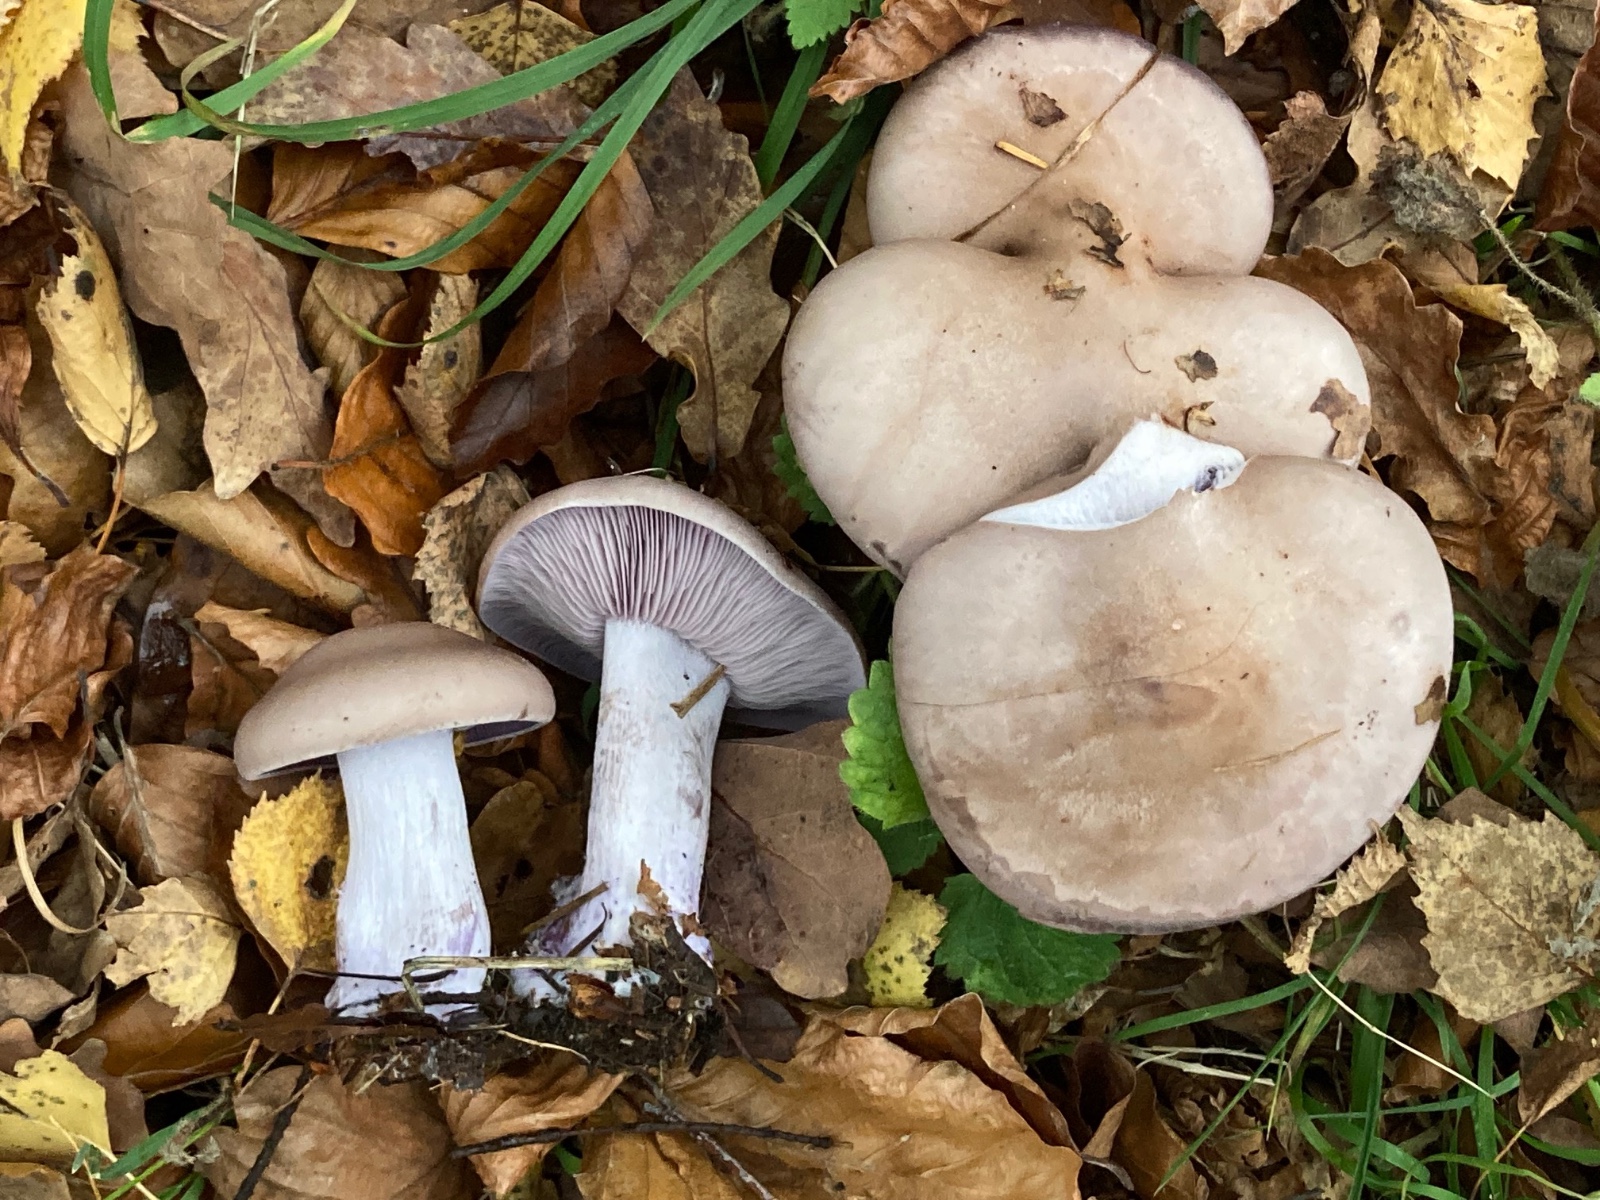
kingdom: Fungi
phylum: Basidiomycota
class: Agaricomycetes
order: Agaricales
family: Tricholomataceae
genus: Lepista
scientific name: Lepista nuda
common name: violet hekseringshat
